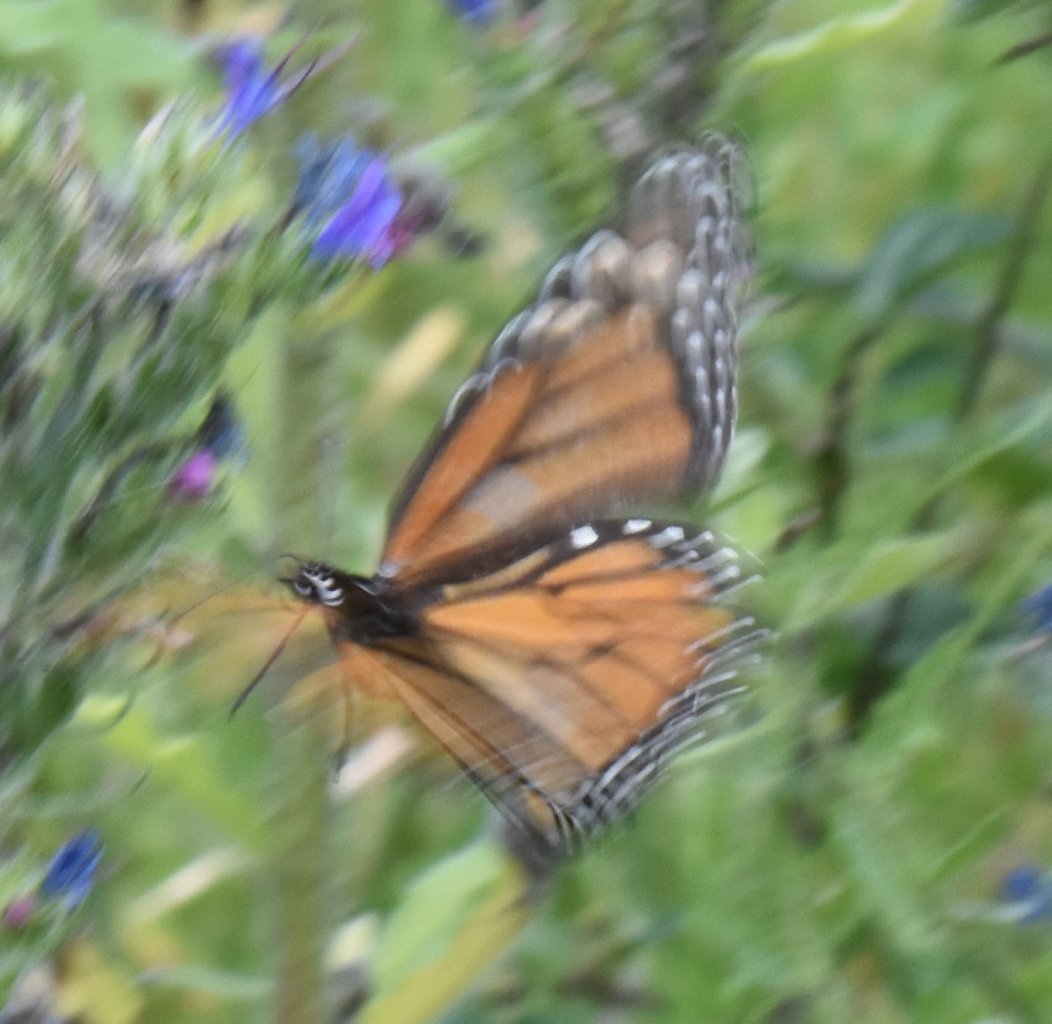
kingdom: Animalia
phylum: Arthropoda
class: Insecta
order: Lepidoptera
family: Nymphalidae
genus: Danaus
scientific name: Danaus plexippus
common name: Monarch
